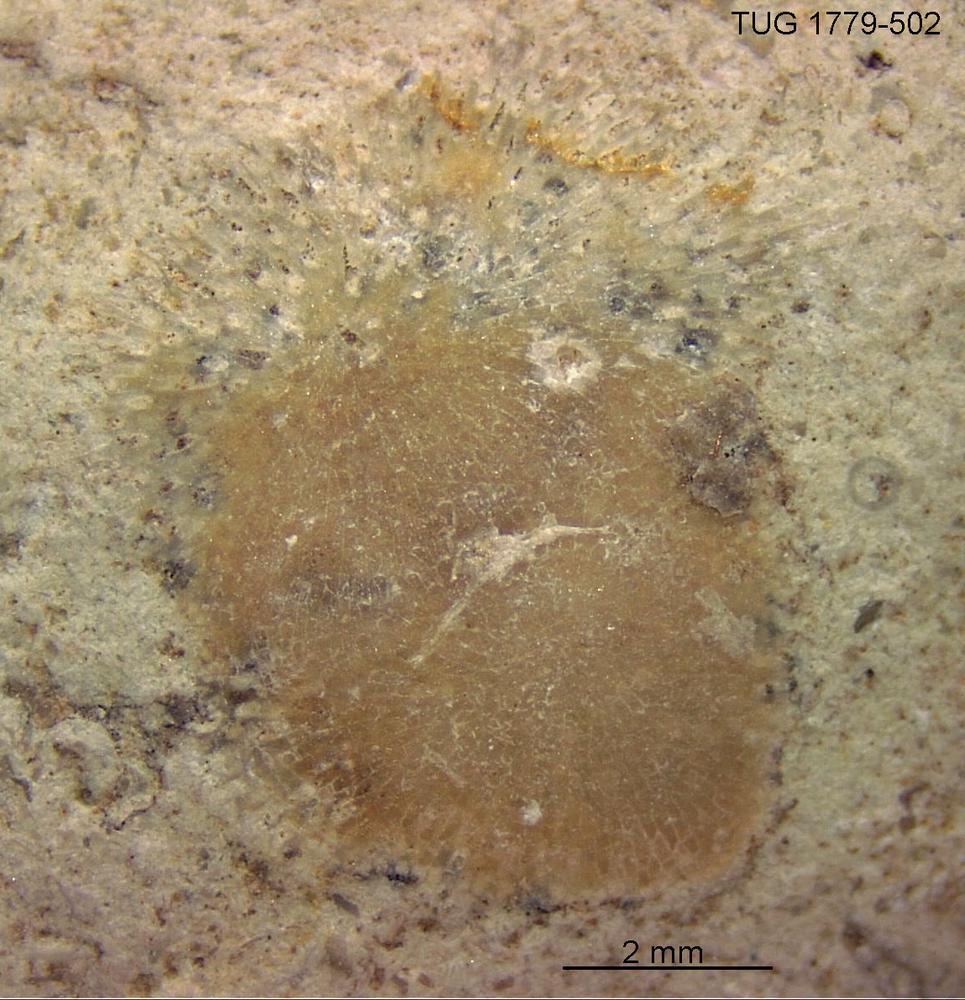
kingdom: Animalia
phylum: Bryozoa
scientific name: Bryozoa
